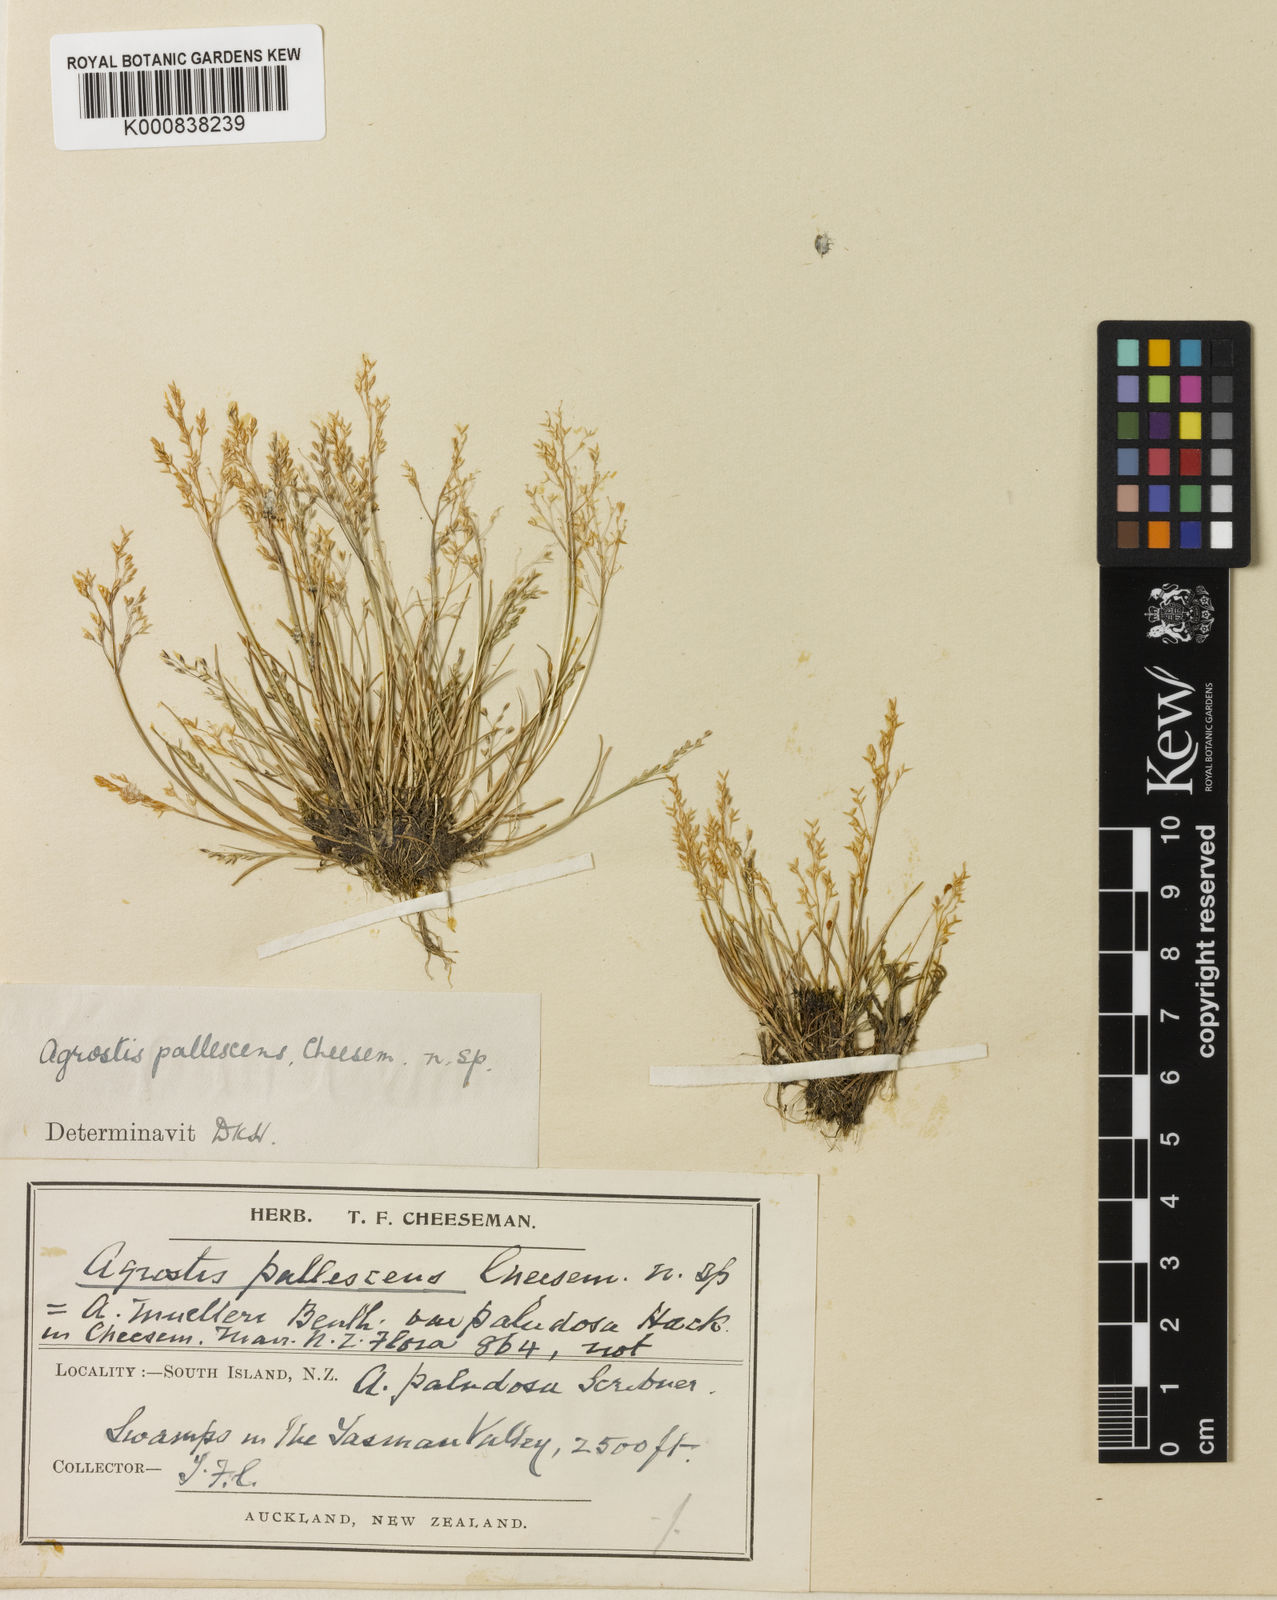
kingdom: Plantae
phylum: Tracheophyta
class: Liliopsida
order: Poales
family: Poaceae
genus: Agrostis
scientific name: Agrostis pallescens
